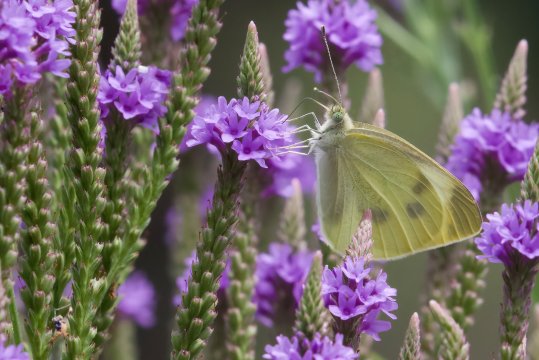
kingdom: Animalia
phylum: Arthropoda
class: Insecta
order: Lepidoptera
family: Pieridae
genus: Pieris
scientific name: Pieris rapae
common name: Cabbage White
